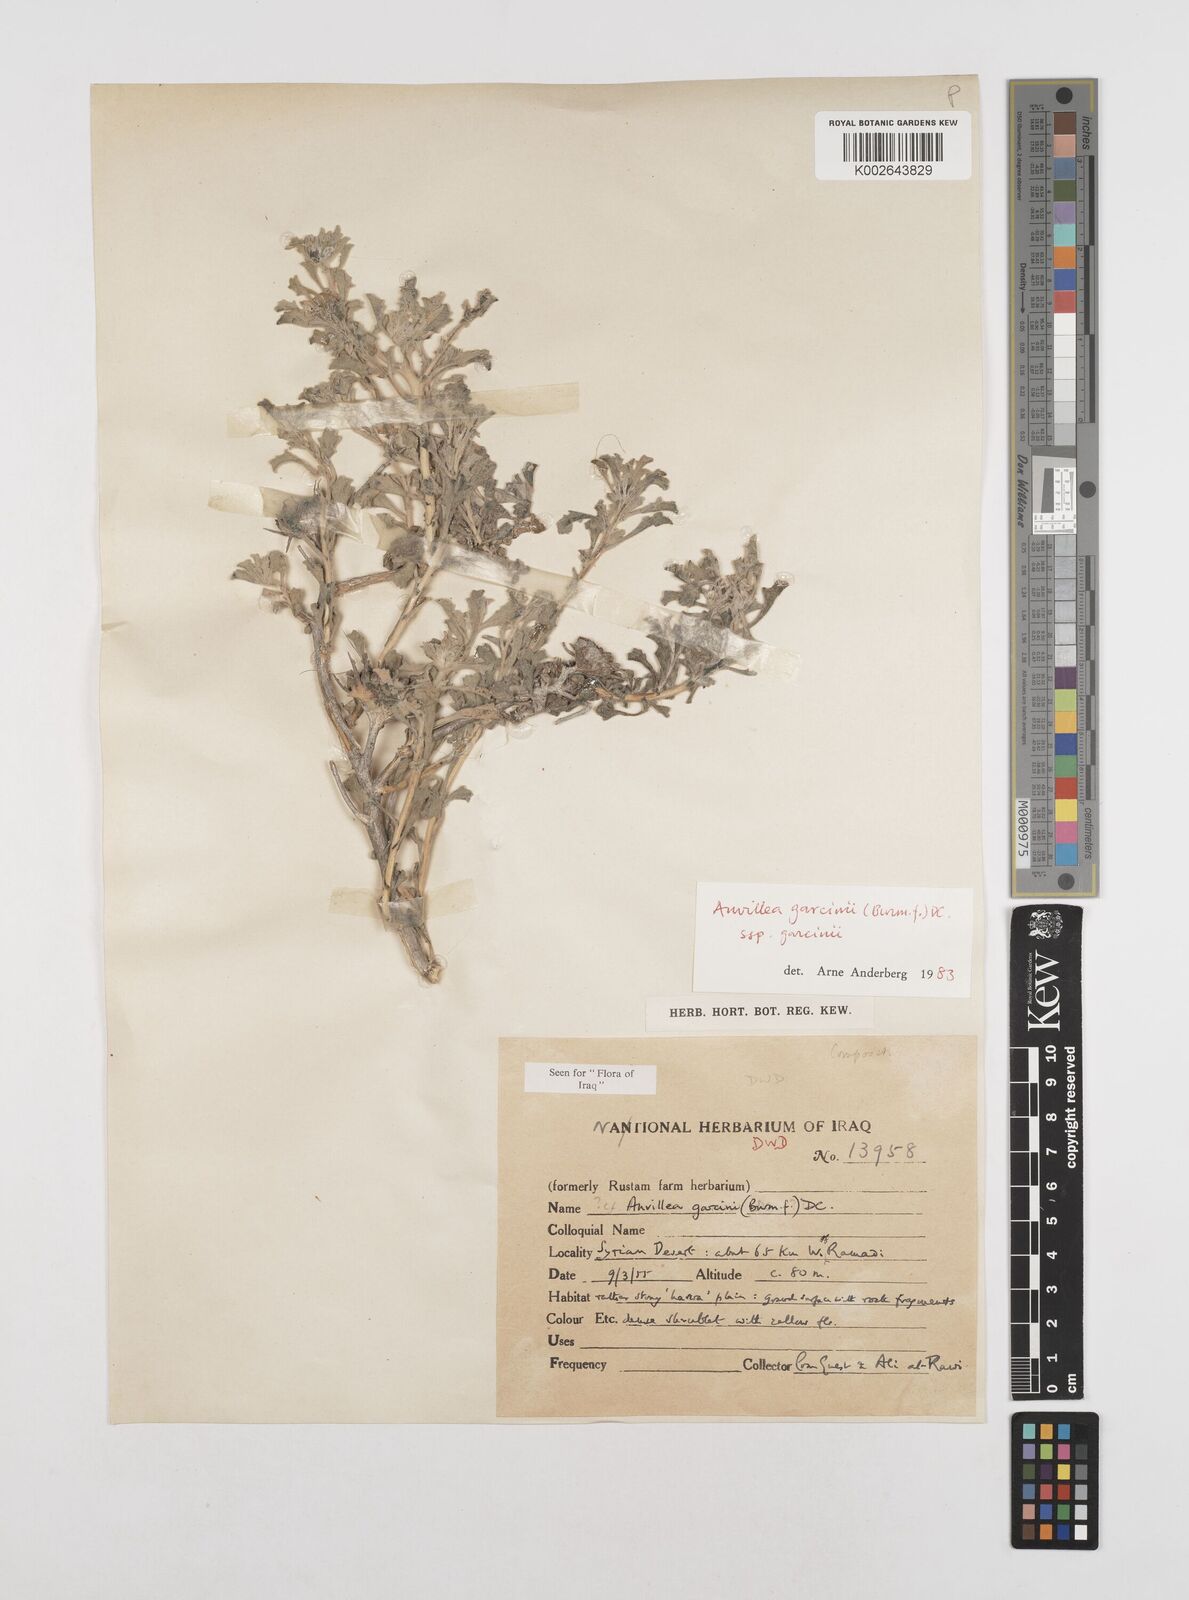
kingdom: Plantae
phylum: Tracheophyta
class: Magnoliopsida
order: Asterales
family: Asteraceae
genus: Anvillea
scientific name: Anvillea garcinii
